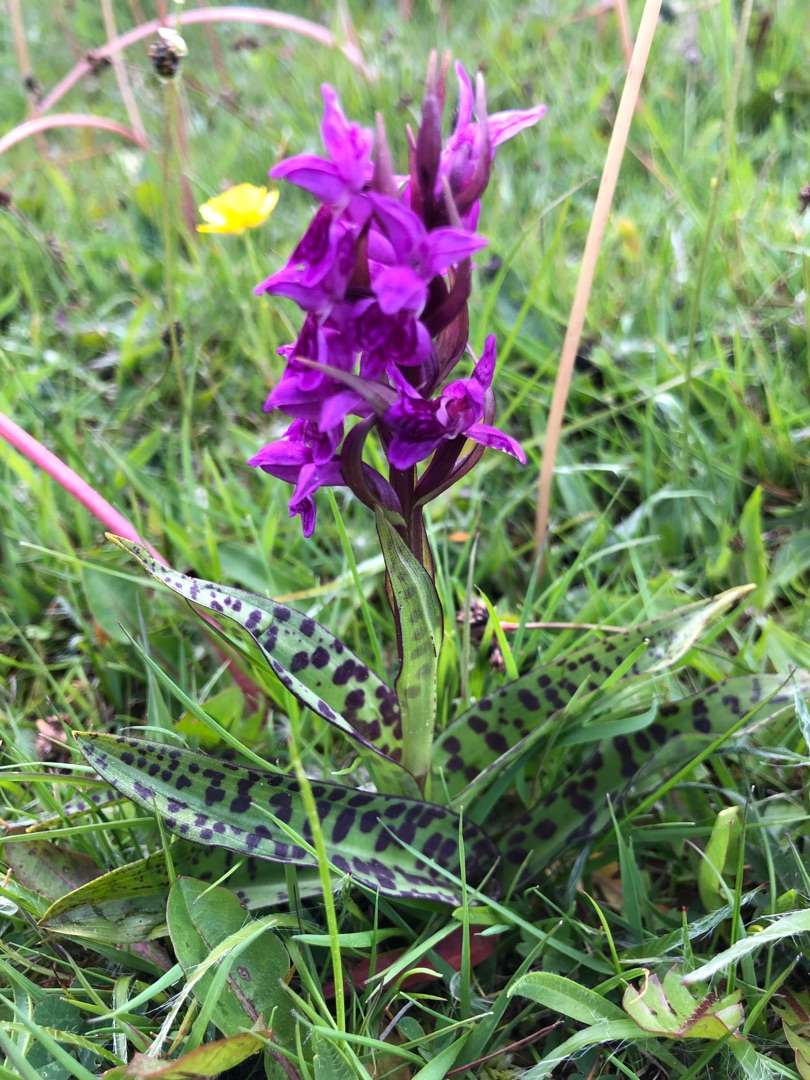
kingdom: Plantae
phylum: Tracheophyta
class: Liliopsida
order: Asparagales
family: Orchidaceae
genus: Dactylorhiza
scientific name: Dactylorhiza majalis
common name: Maj-gøgeurt
